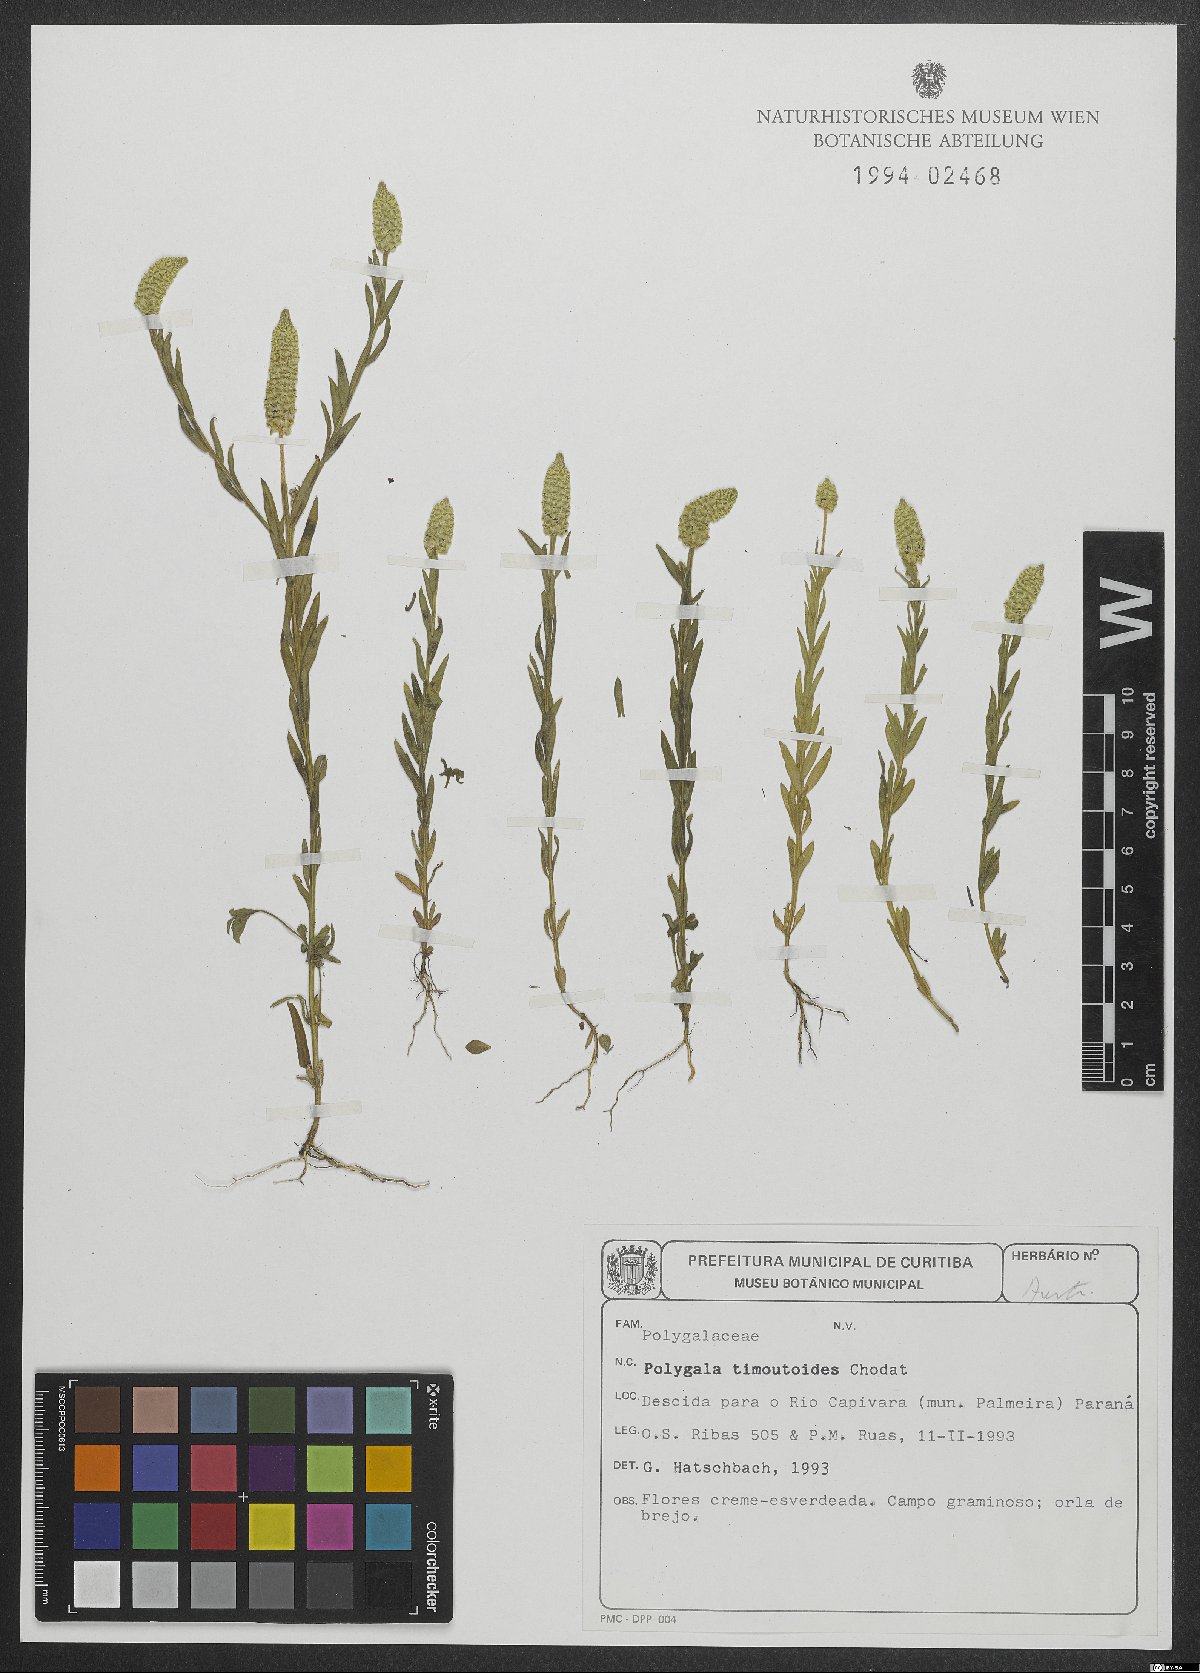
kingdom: Plantae
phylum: Tracheophyta
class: Magnoliopsida
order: Fabales
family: Polygalaceae
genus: Polygala
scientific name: Polygala timoutoides
